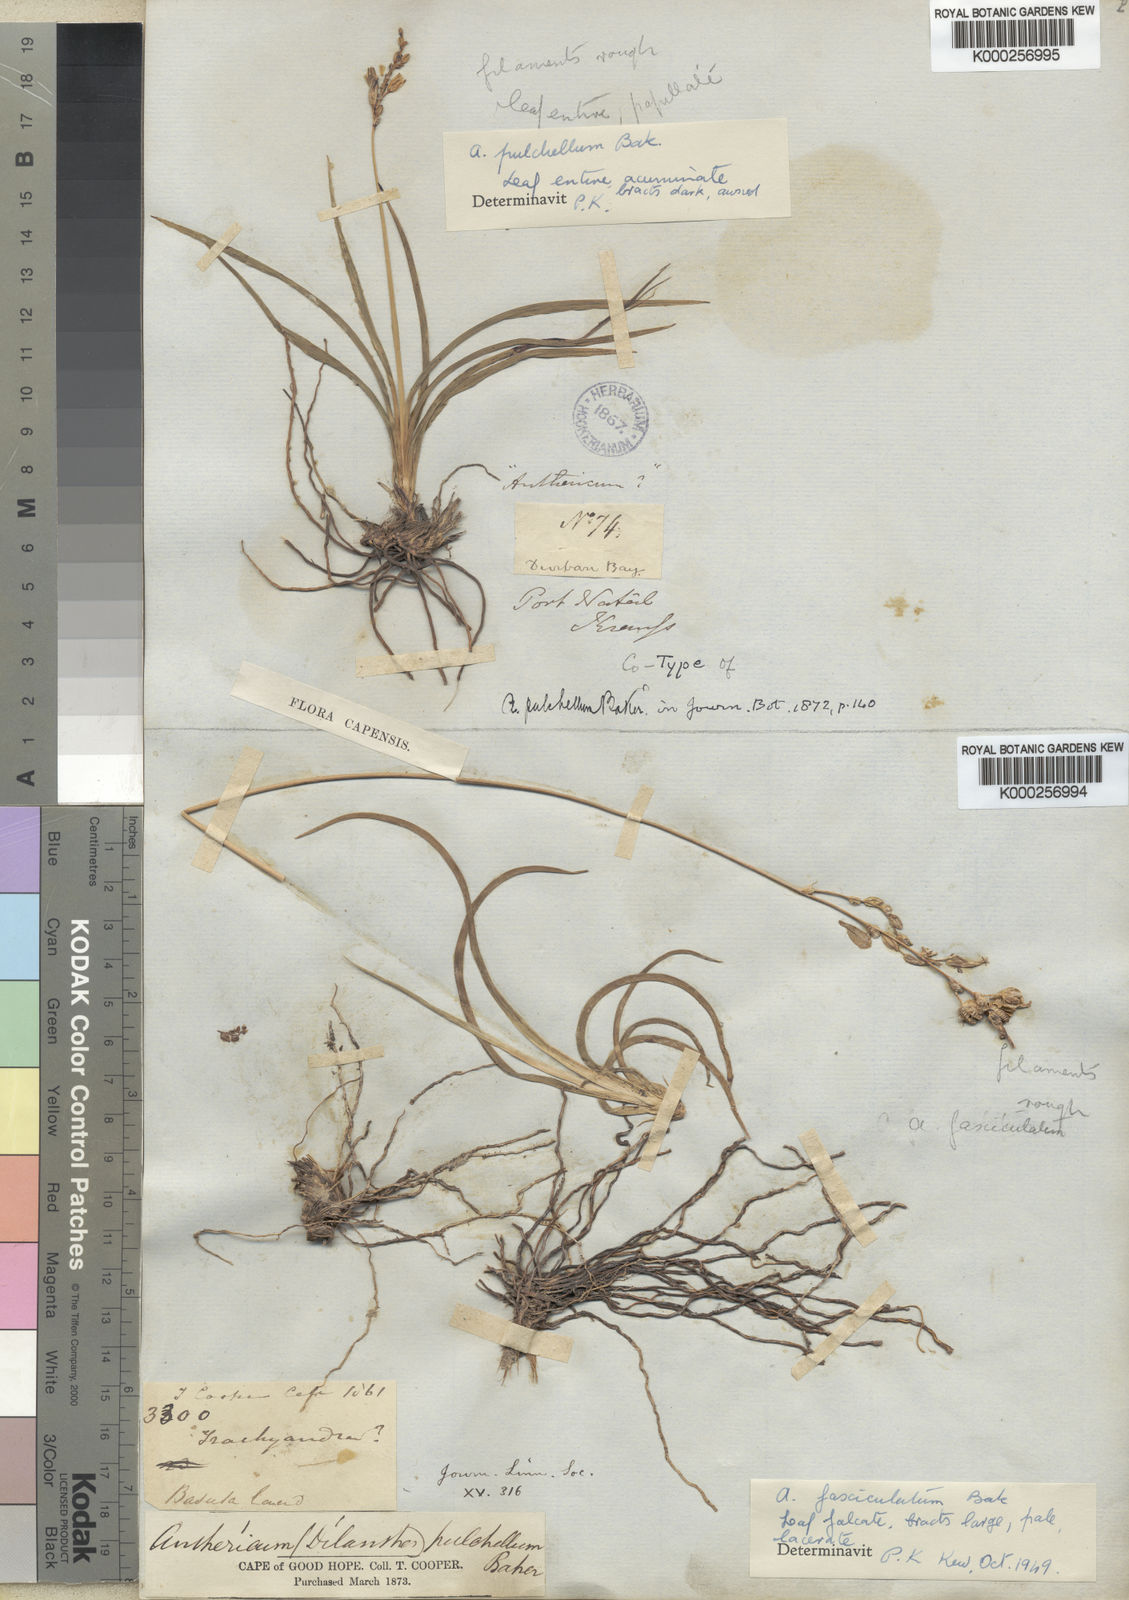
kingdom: Plantae
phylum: Tracheophyta
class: Liliopsida
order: Asparagales
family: Asparagaceae
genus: Chlorophytum
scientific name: Chlorophytum saundersiae
